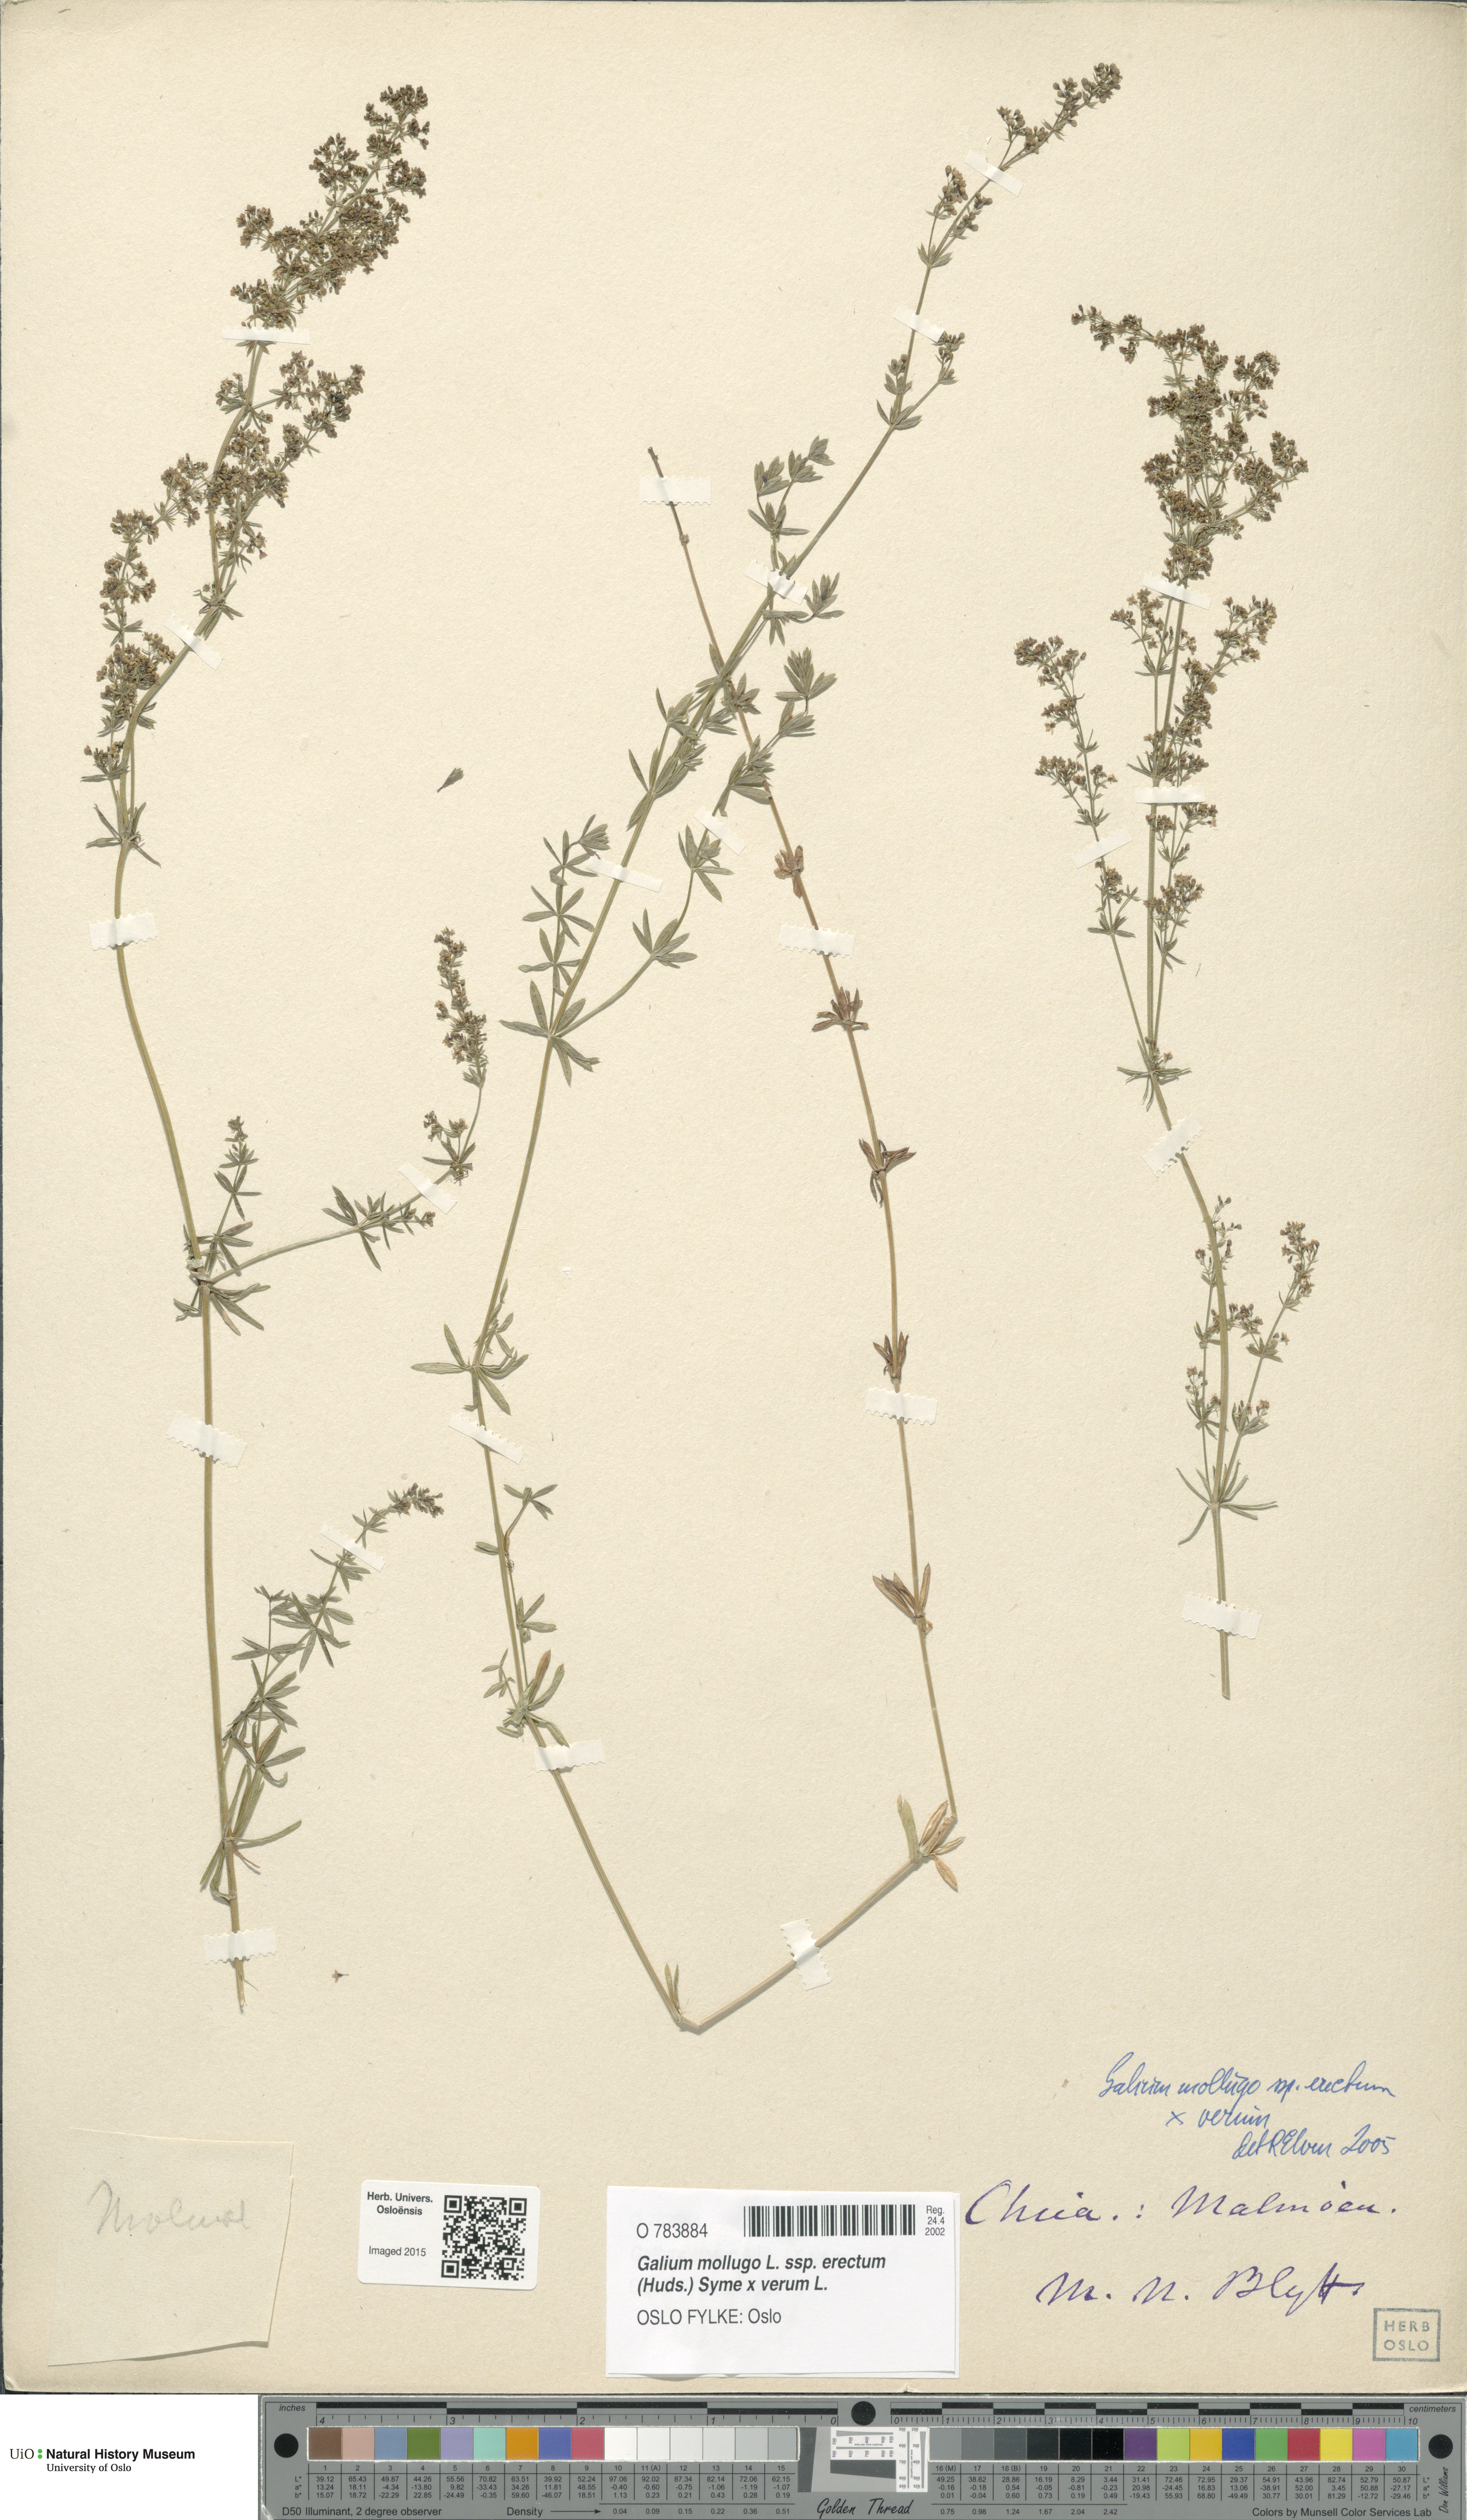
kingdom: Plantae
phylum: Tracheophyta
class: Magnoliopsida
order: Gentianales
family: Rubiaceae
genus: Galium
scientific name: Galium
